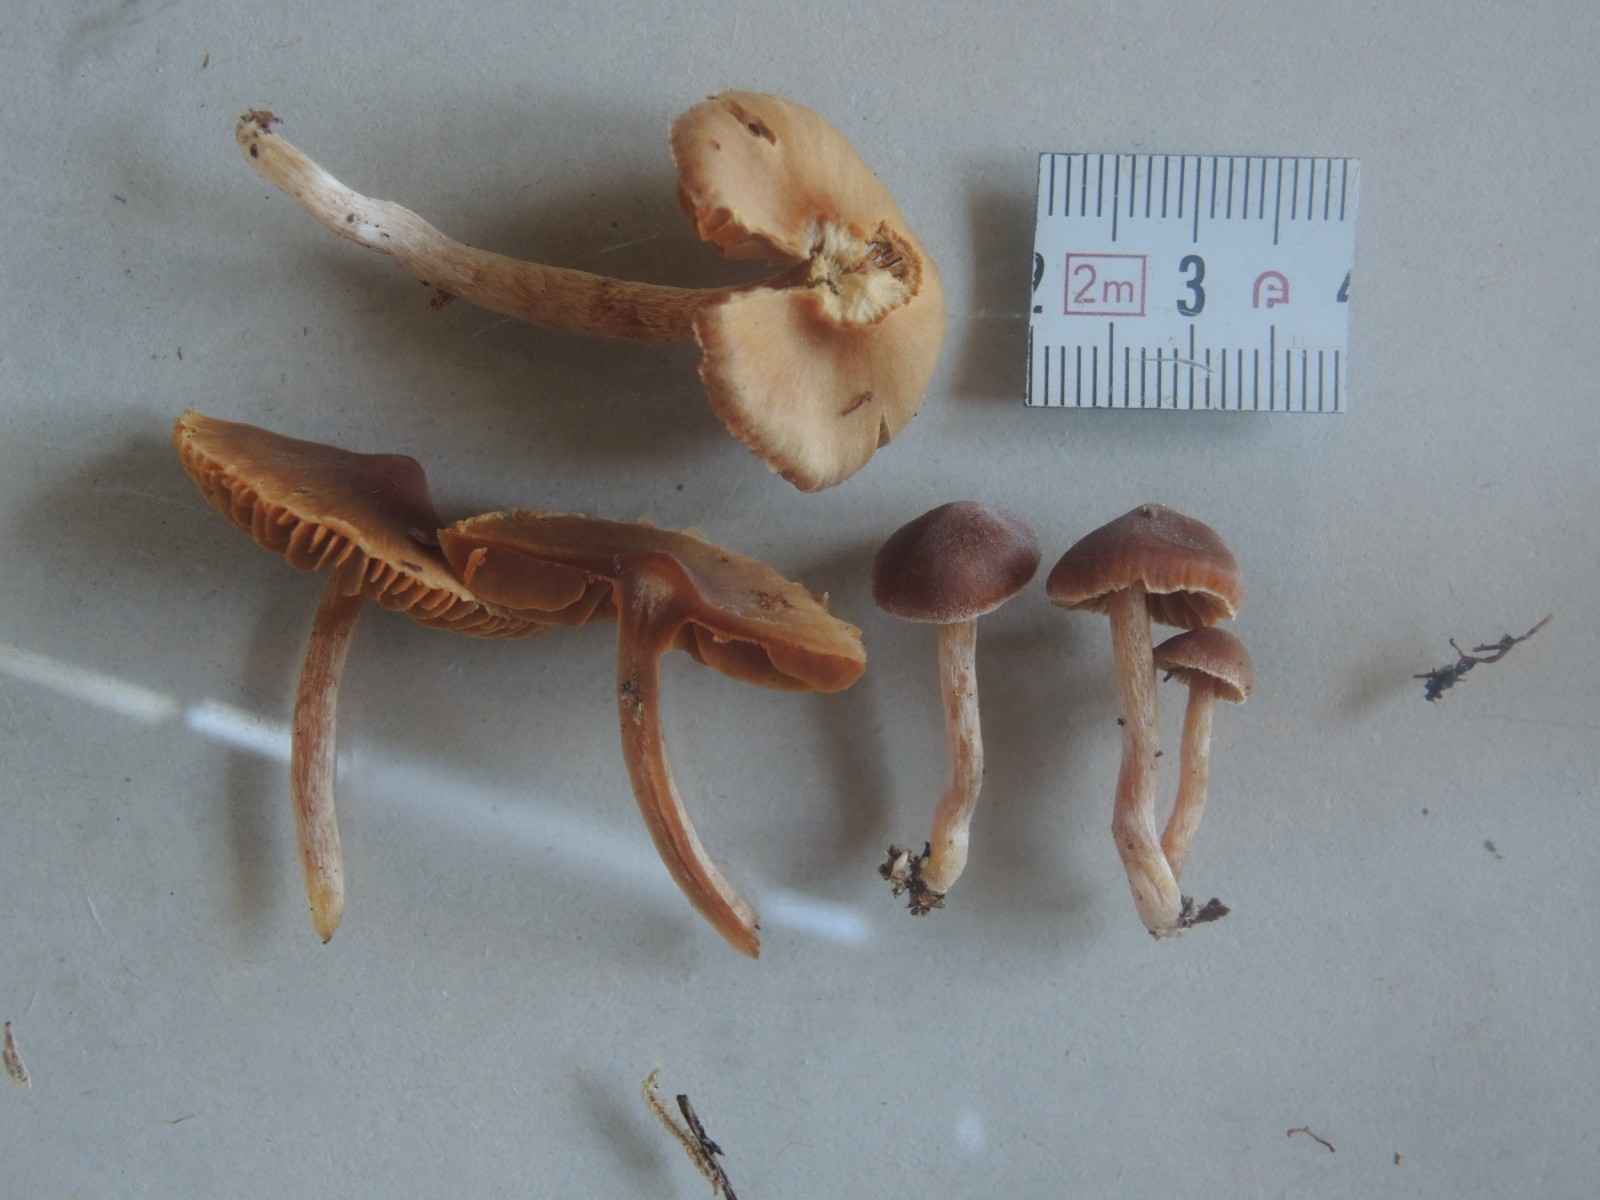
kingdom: Fungi
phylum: Basidiomycota
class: Agaricomycetes
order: Agaricales
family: Cortinariaceae
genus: Cortinarius
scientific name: Cortinarius aurae
